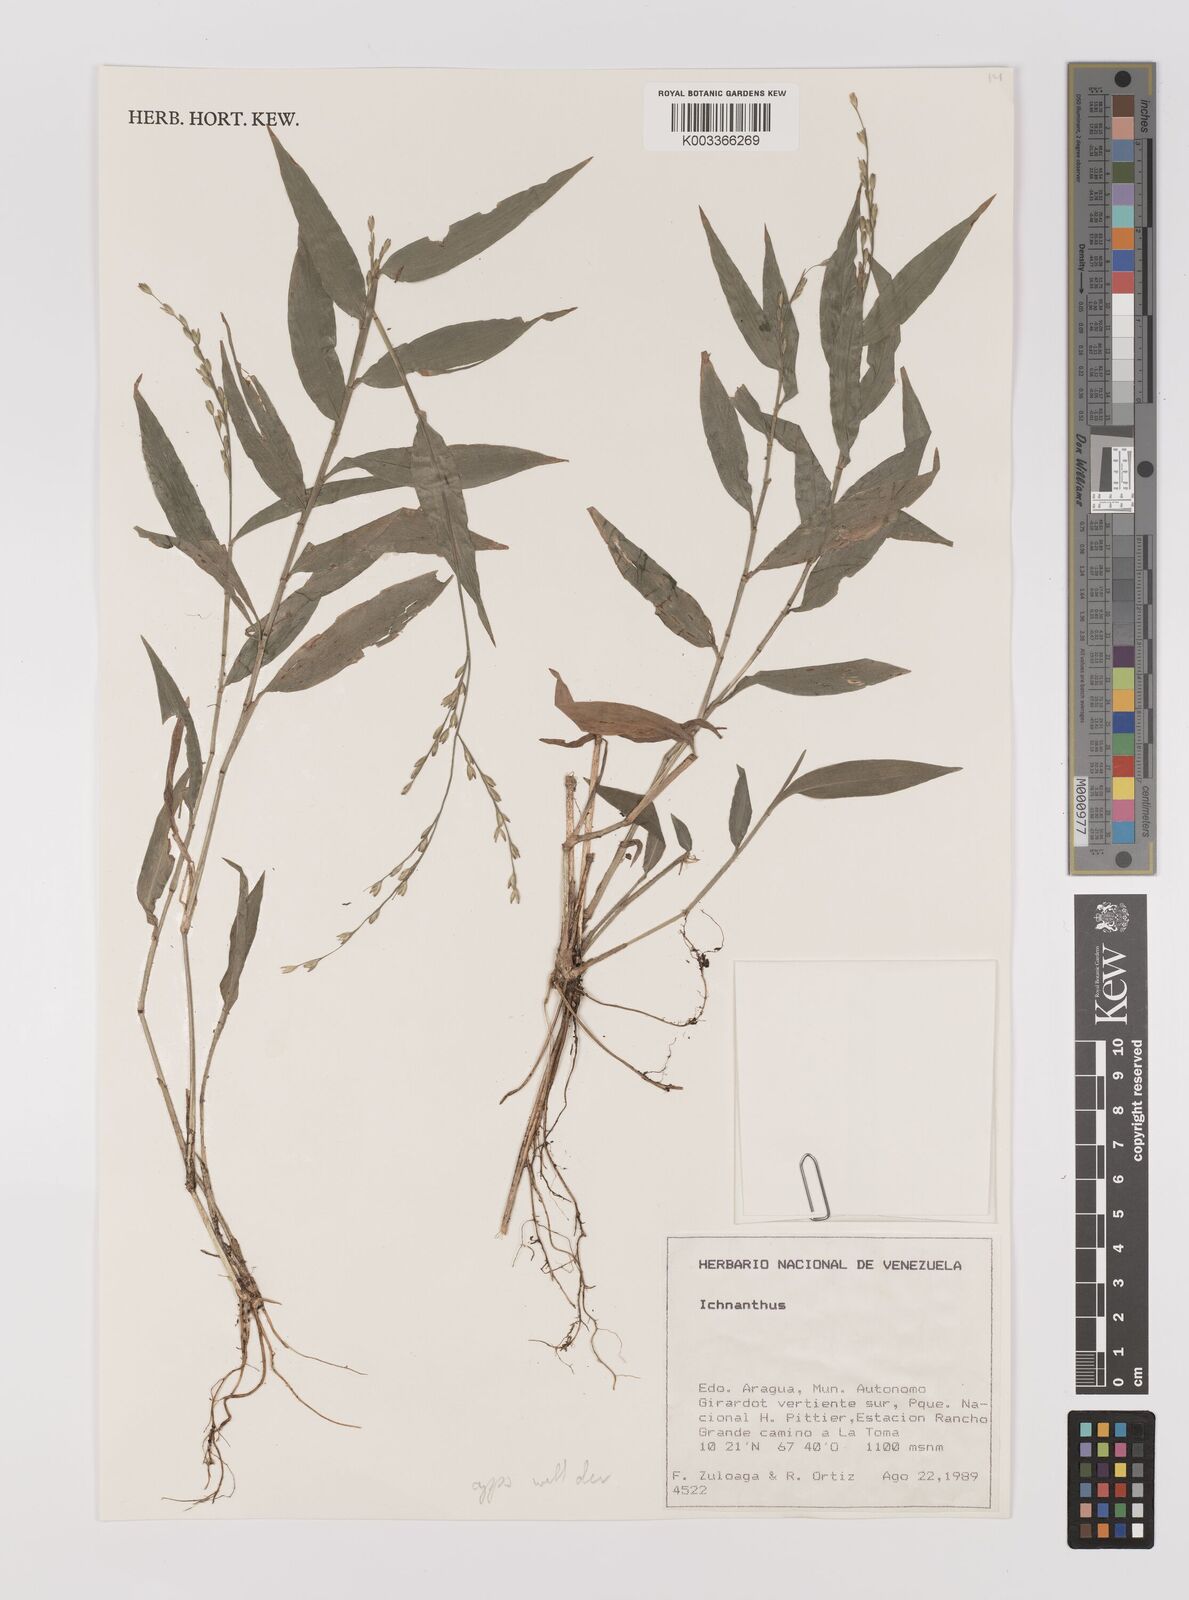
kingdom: Plantae
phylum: Tracheophyta
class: Liliopsida
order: Poales
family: Poaceae
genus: Ichnanthus
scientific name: Ichnanthus nemoralis
